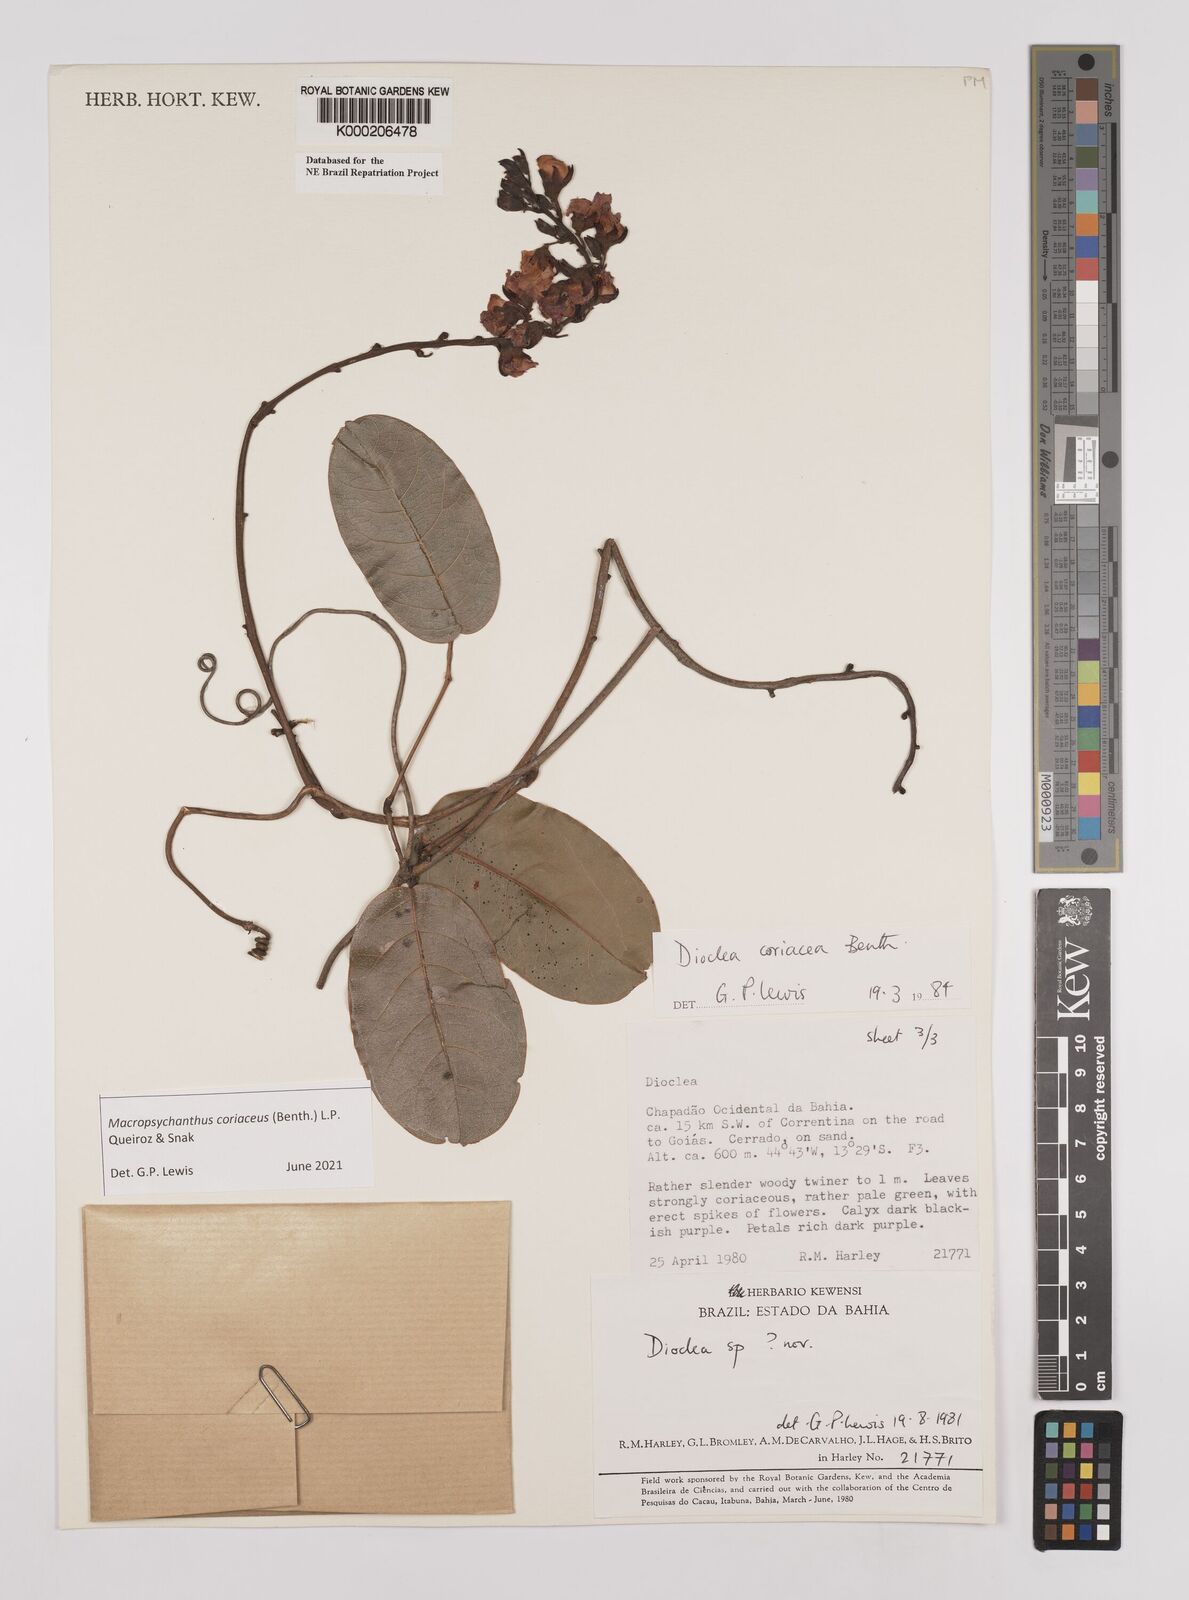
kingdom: Plantae
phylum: Tracheophyta
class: Magnoliopsida
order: Fabales
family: Fabaceae
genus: Macropsychanthus
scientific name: Macropsychanthus coriaceus
